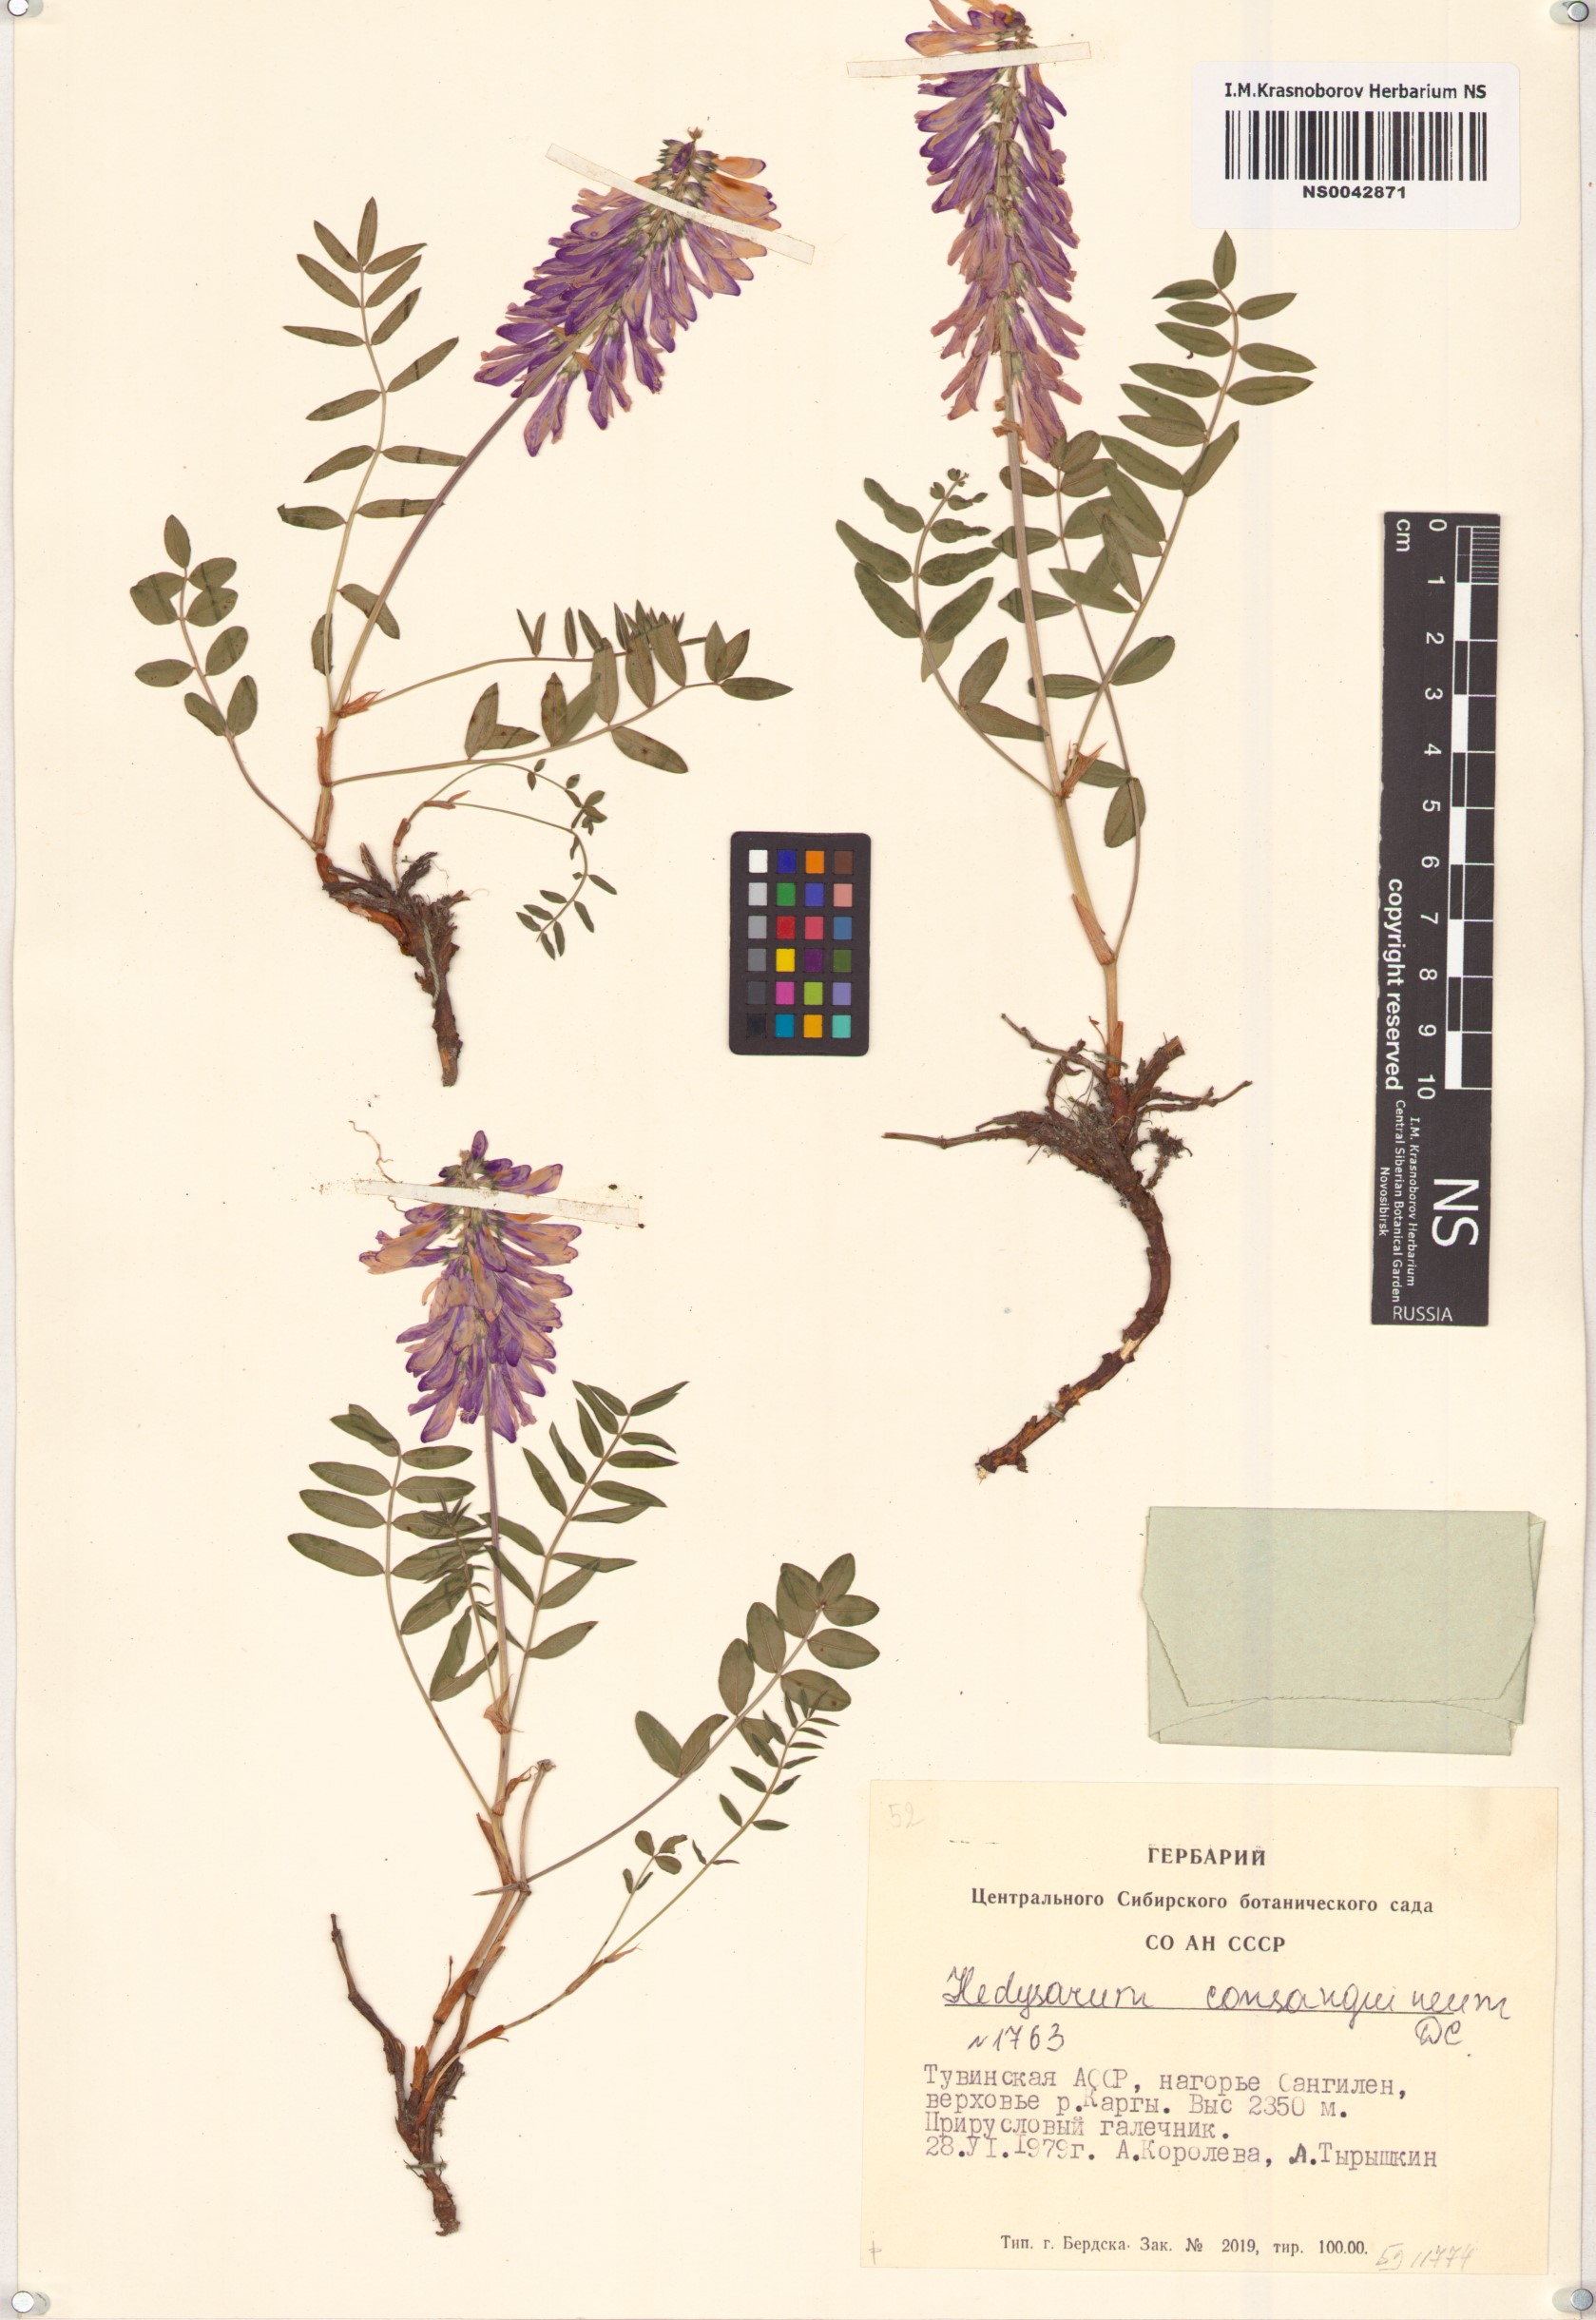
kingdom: Plantae
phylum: Tracheophyta
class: Magnoliopsida
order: Fabales
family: Fabaceae
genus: Hedysarum
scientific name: Hedysarum consanguineum
